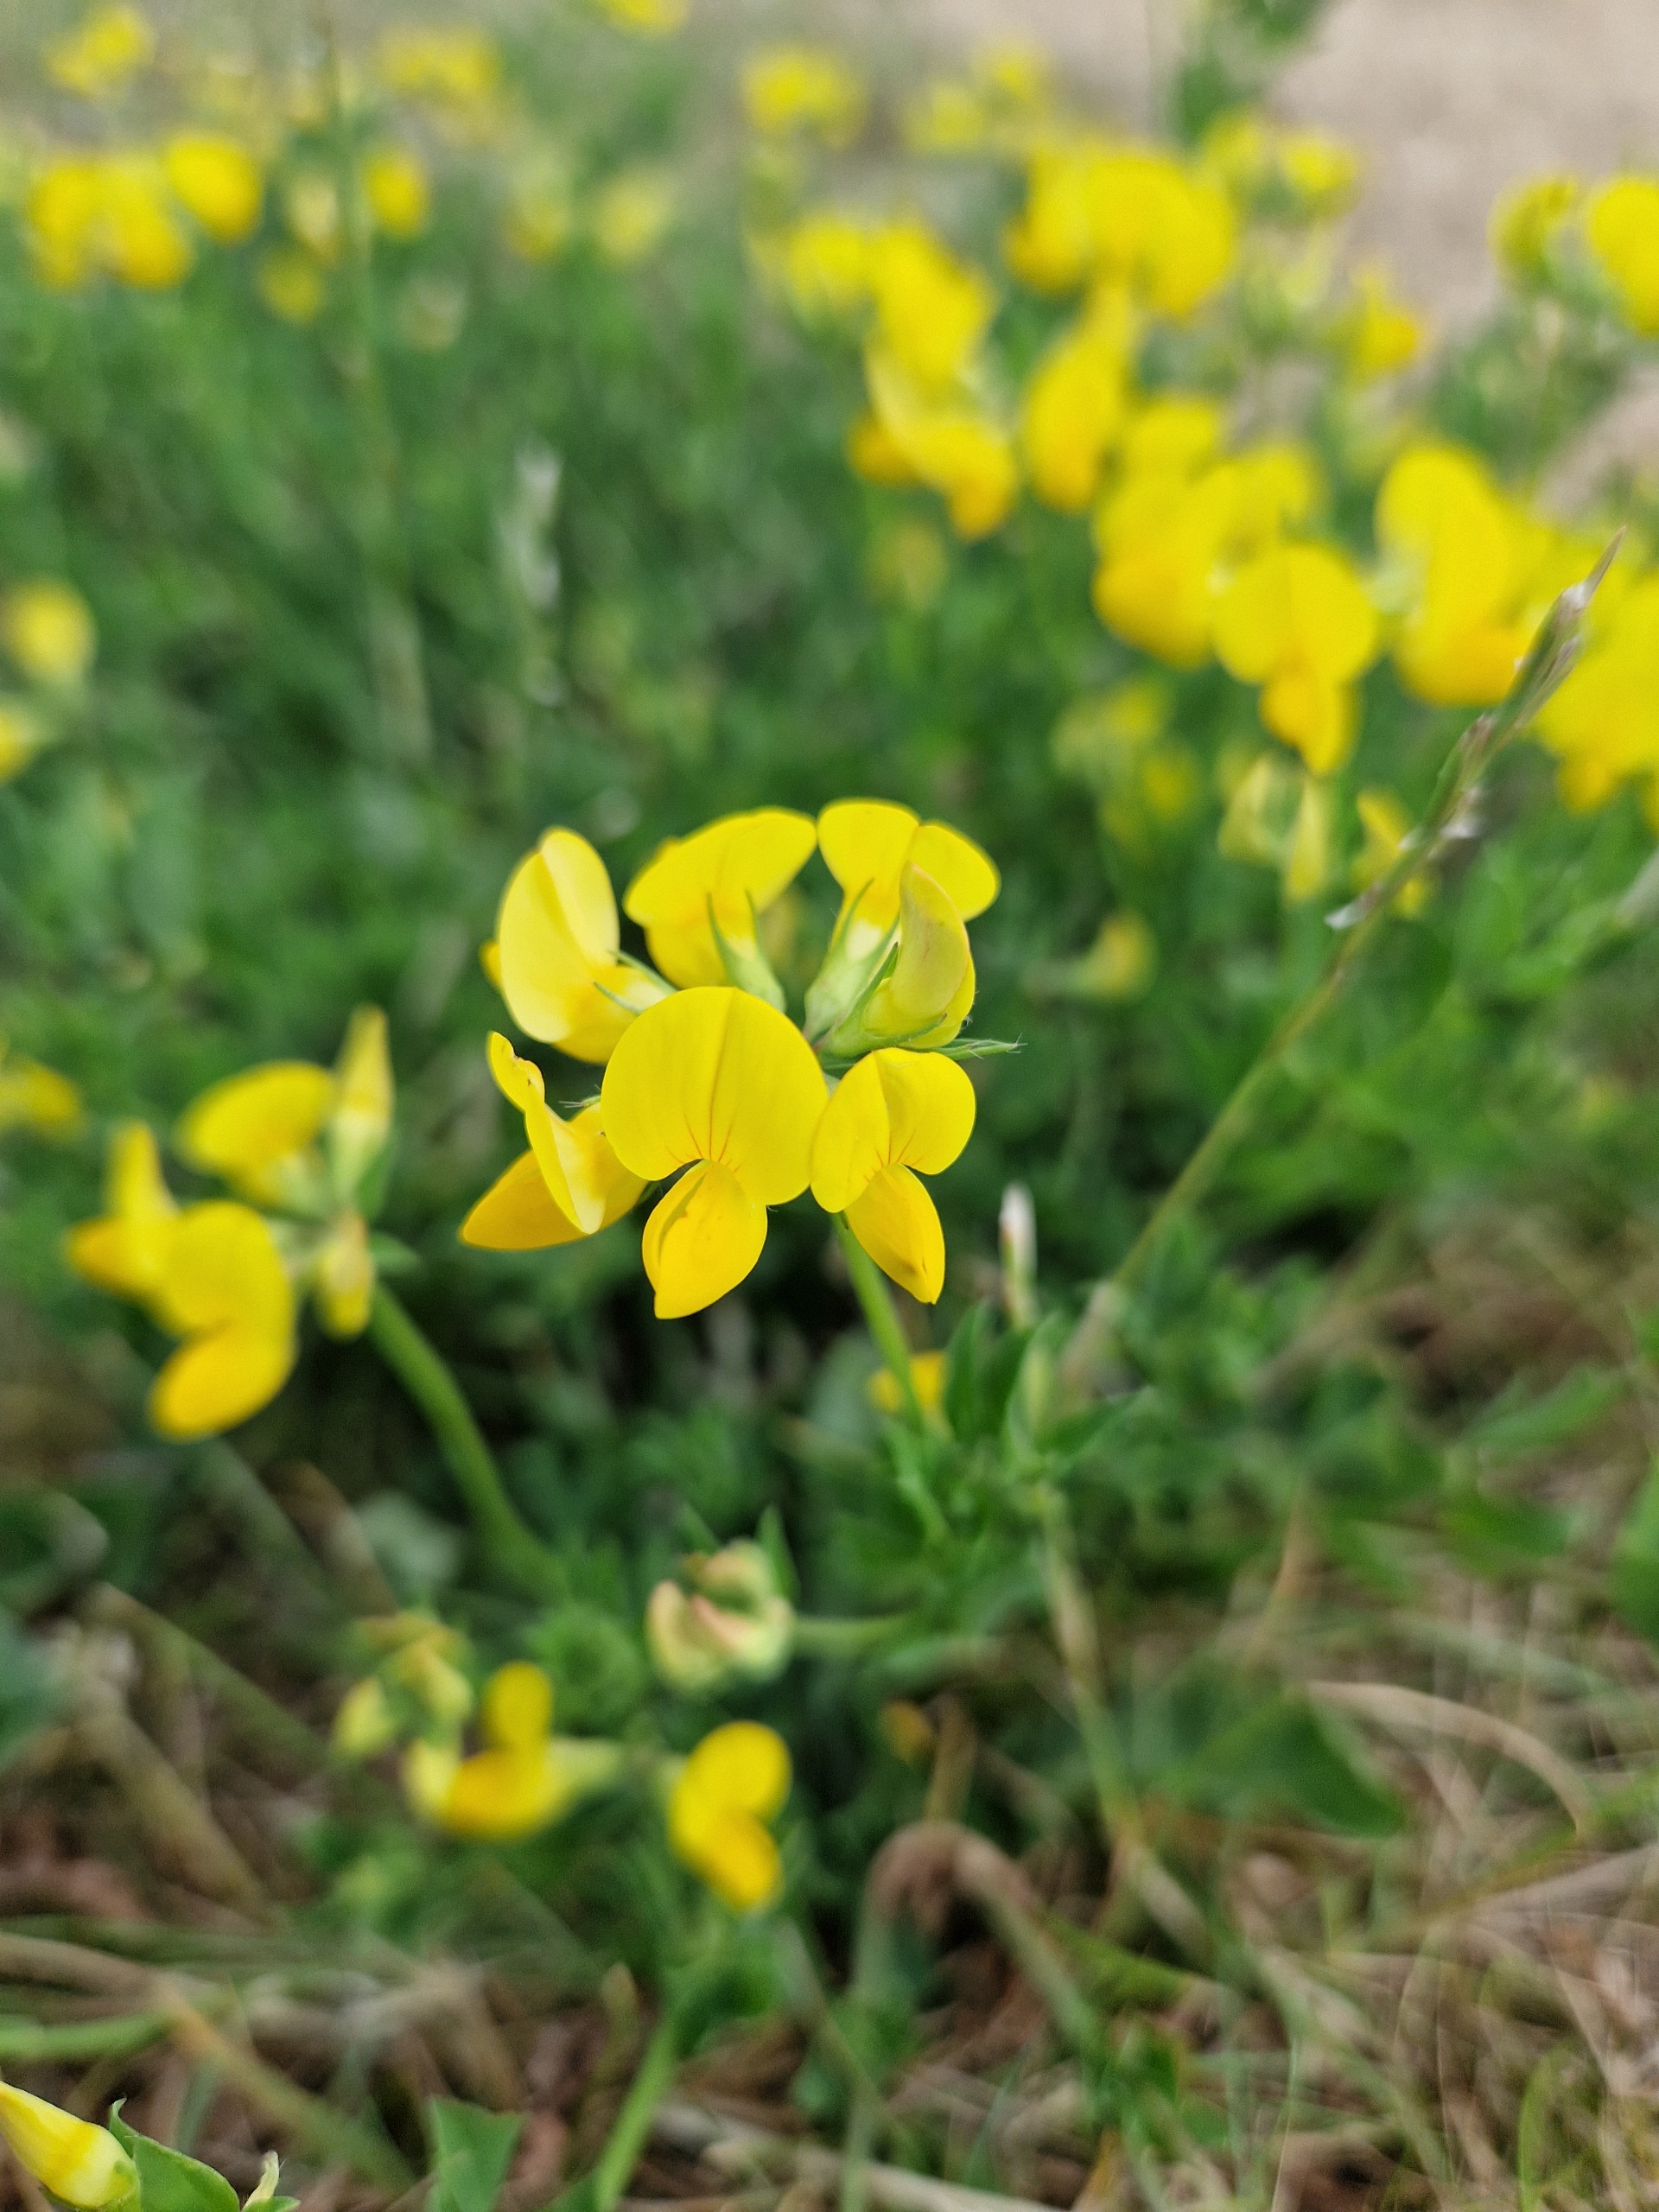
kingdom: Plantae
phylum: Tracheophyta
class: Magnoliopsida
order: Fabales
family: Fabaceae
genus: Lotus
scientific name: Lotus corniculatus
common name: Almindelig kællingetand
